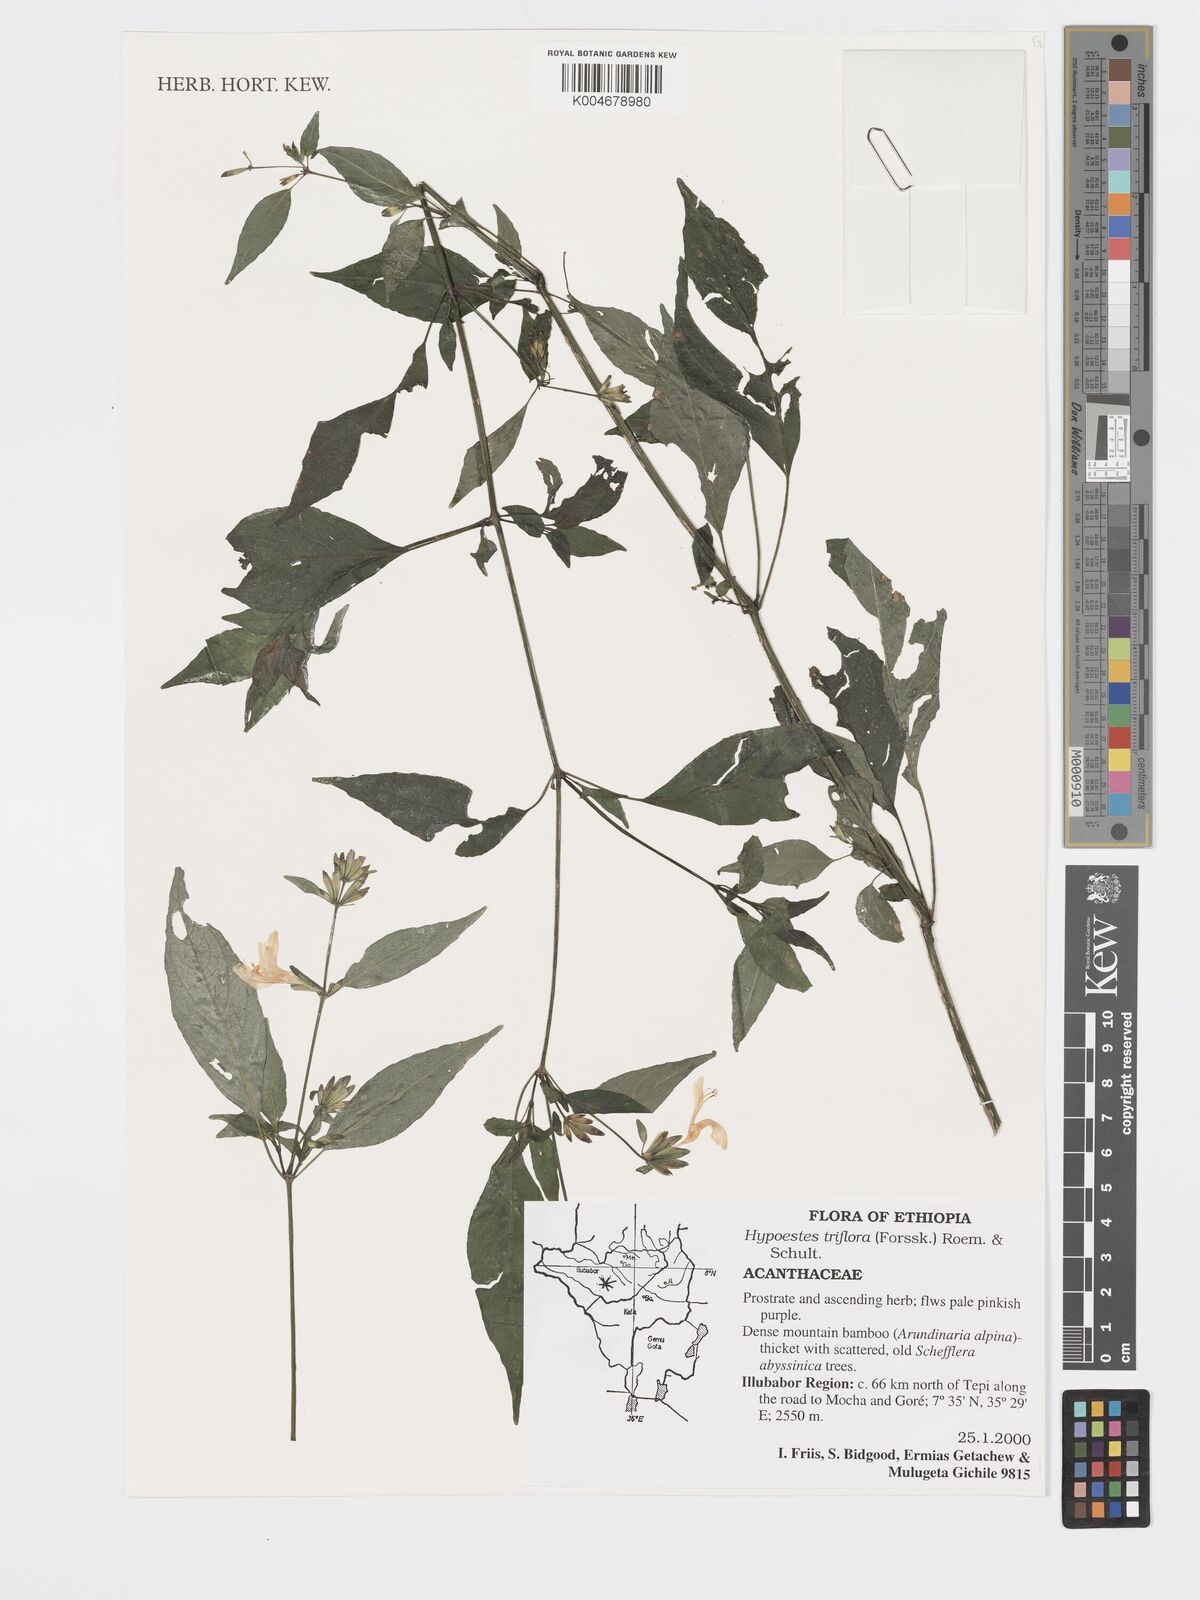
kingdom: Plantae
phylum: Tracheophyta
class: Magnoliopsida
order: Lamiales
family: Acanthaceae
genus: Hypoestes
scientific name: Hypoestes triflora
